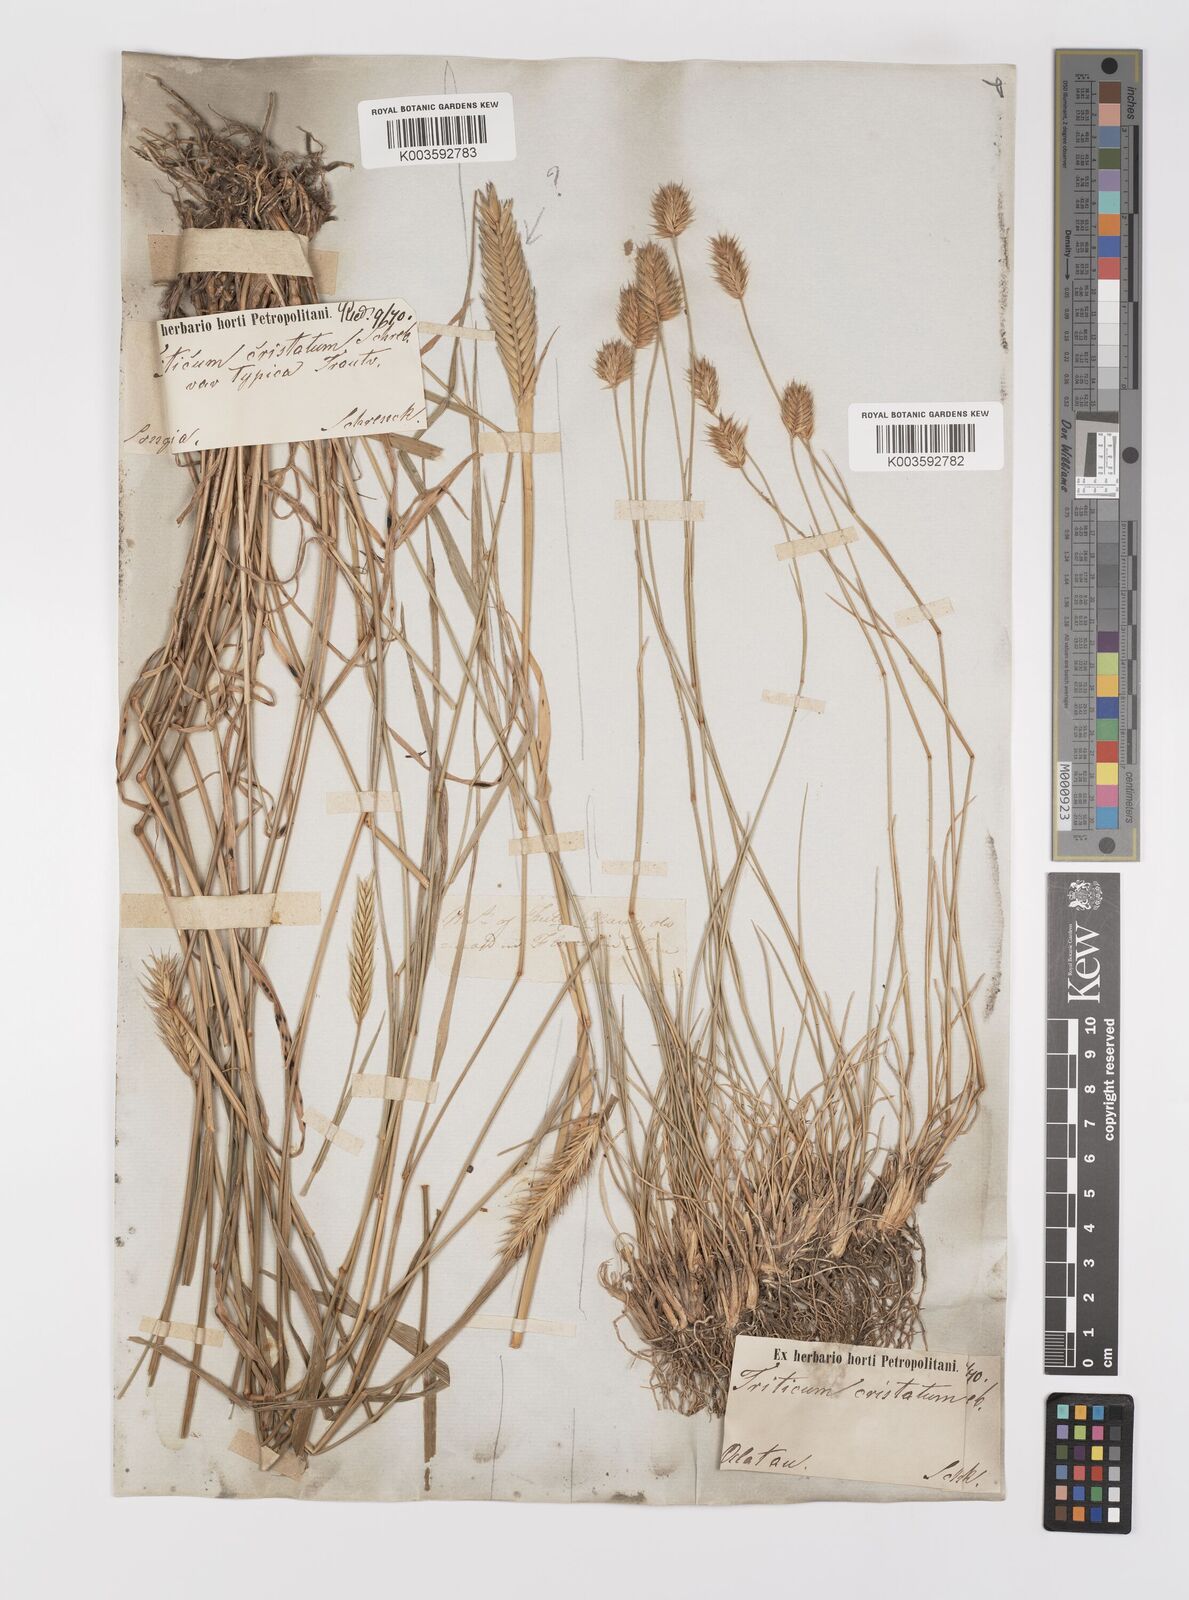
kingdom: Plantae
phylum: Tracheophyta
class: Liliopsida
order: Poales
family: Poaceae
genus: Agropyron
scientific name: Agropyron cristatum
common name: Crested wheatgrass
